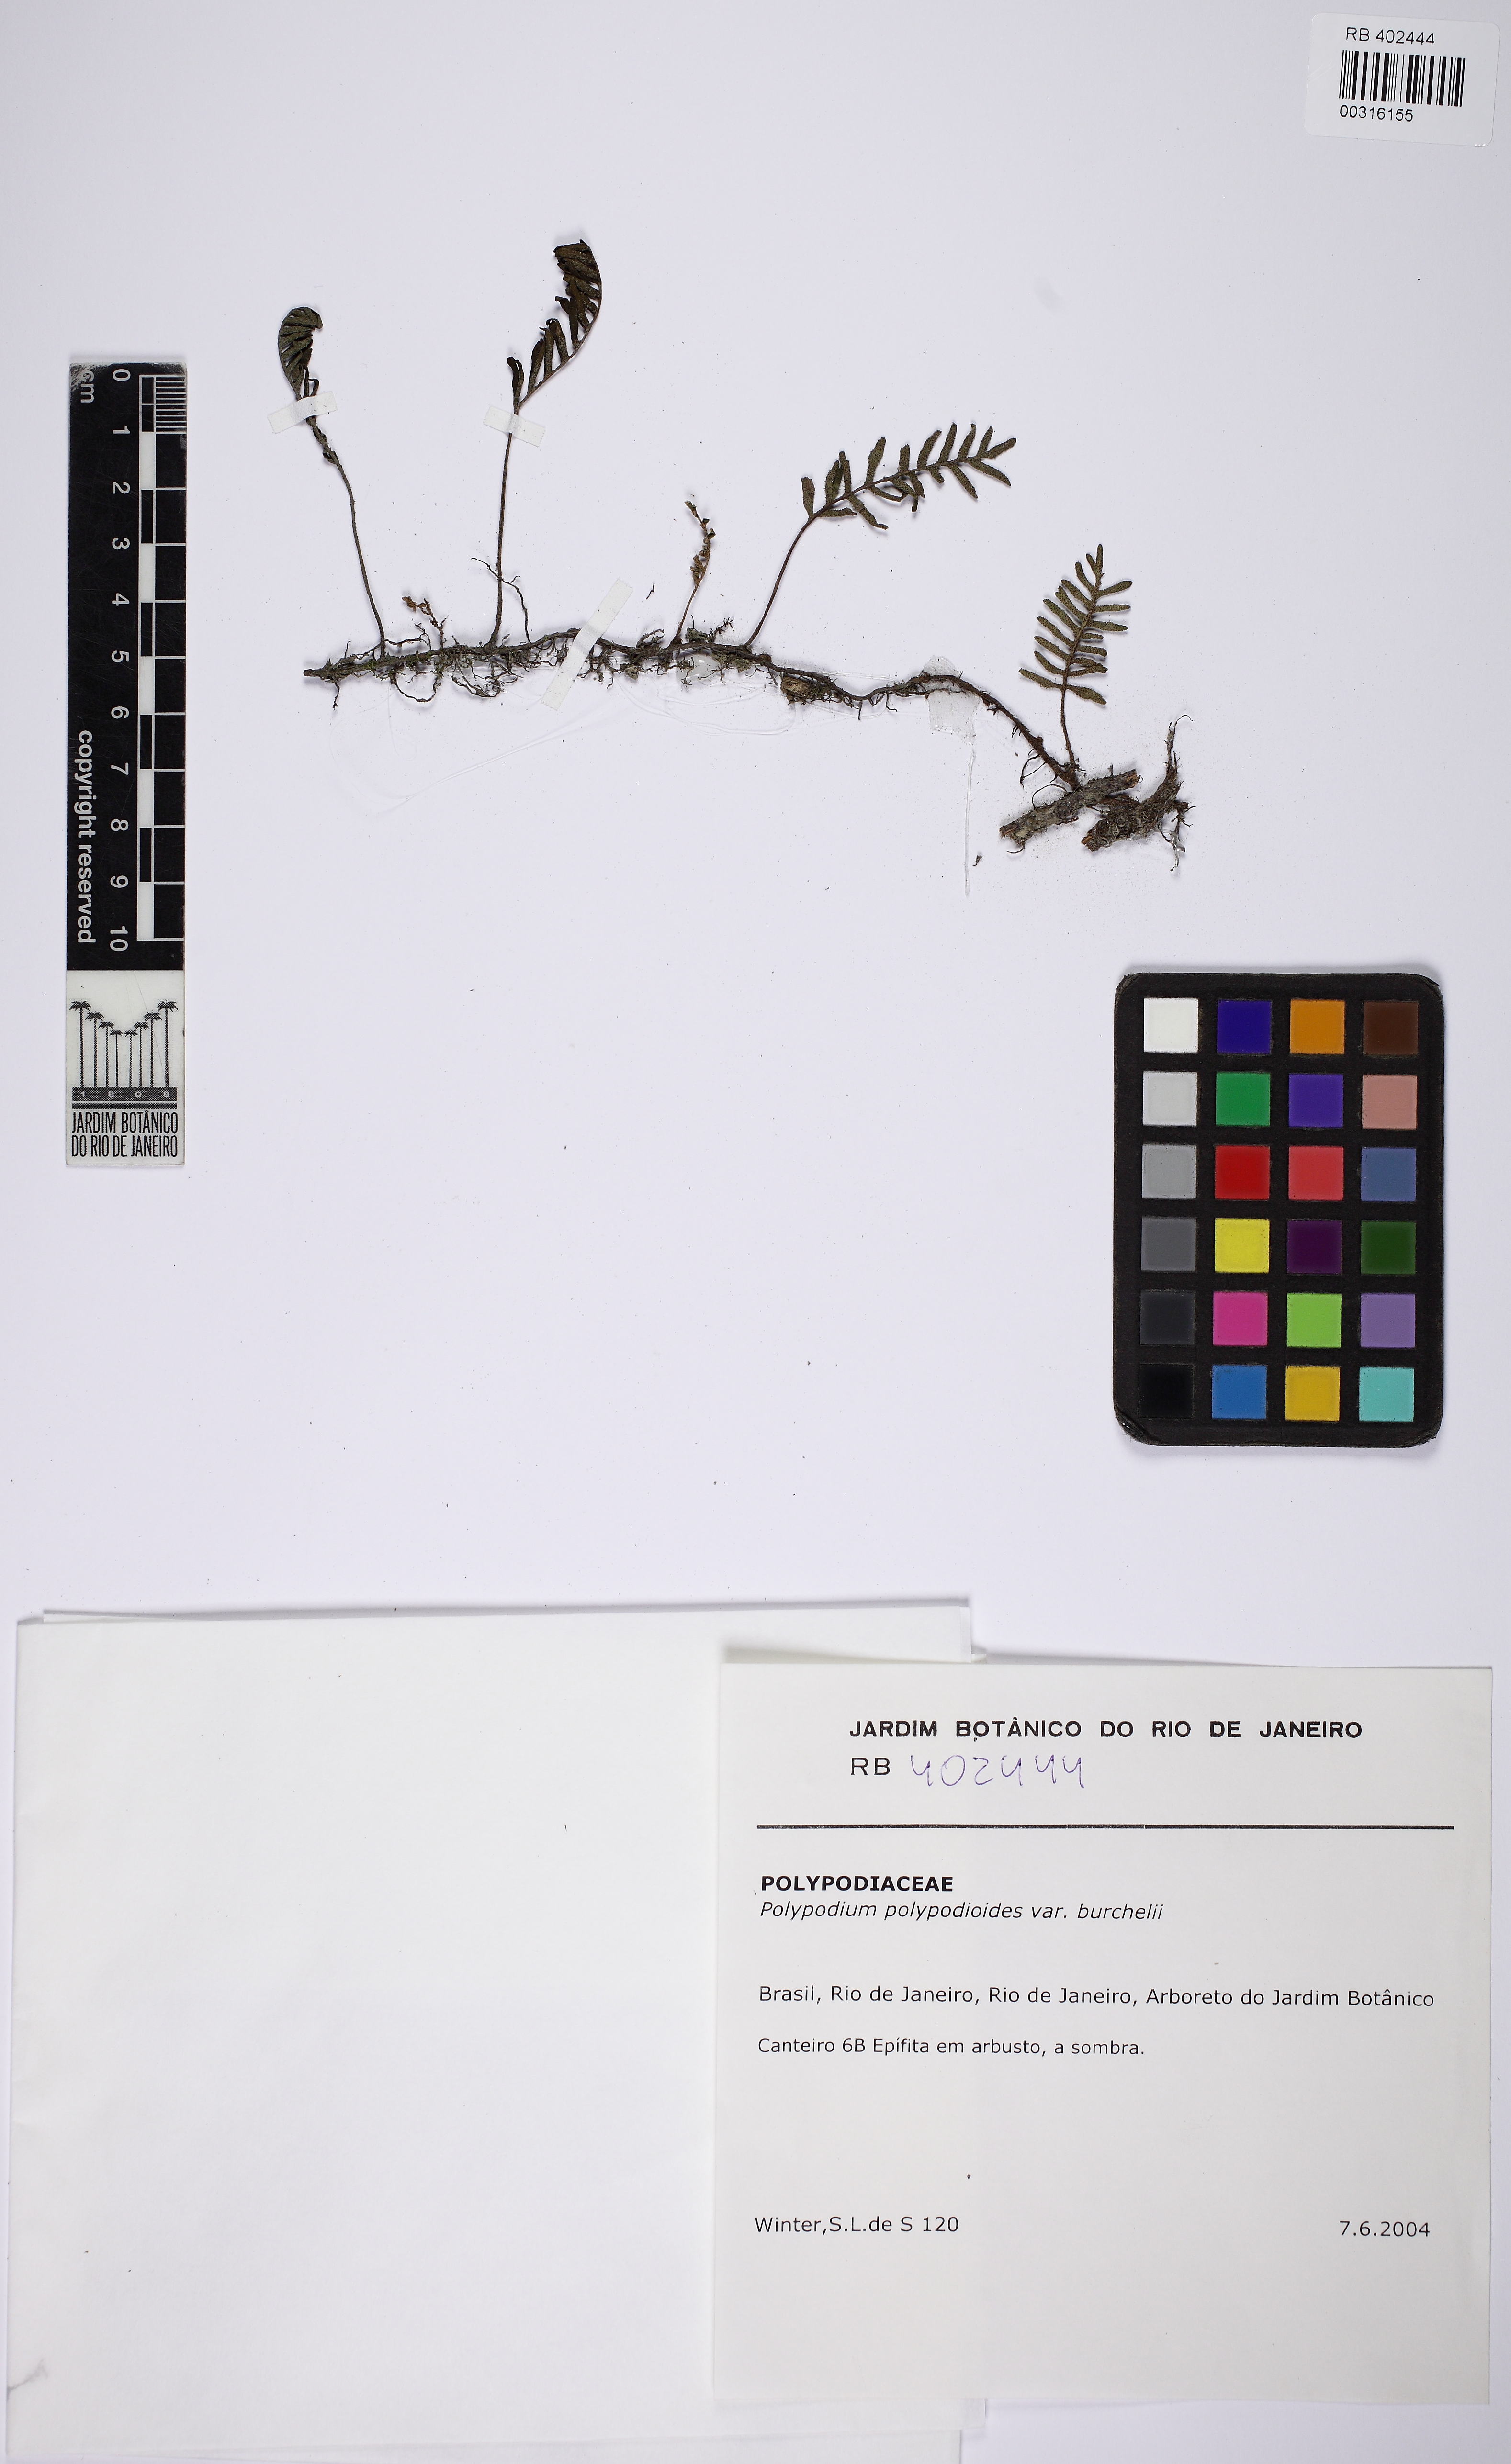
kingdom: Plantae
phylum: Tracheophyta
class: Polypodiopsida
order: Polypodiales
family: Polypodiaceae
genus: Pleopeltis
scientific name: Pleopeltis minima
